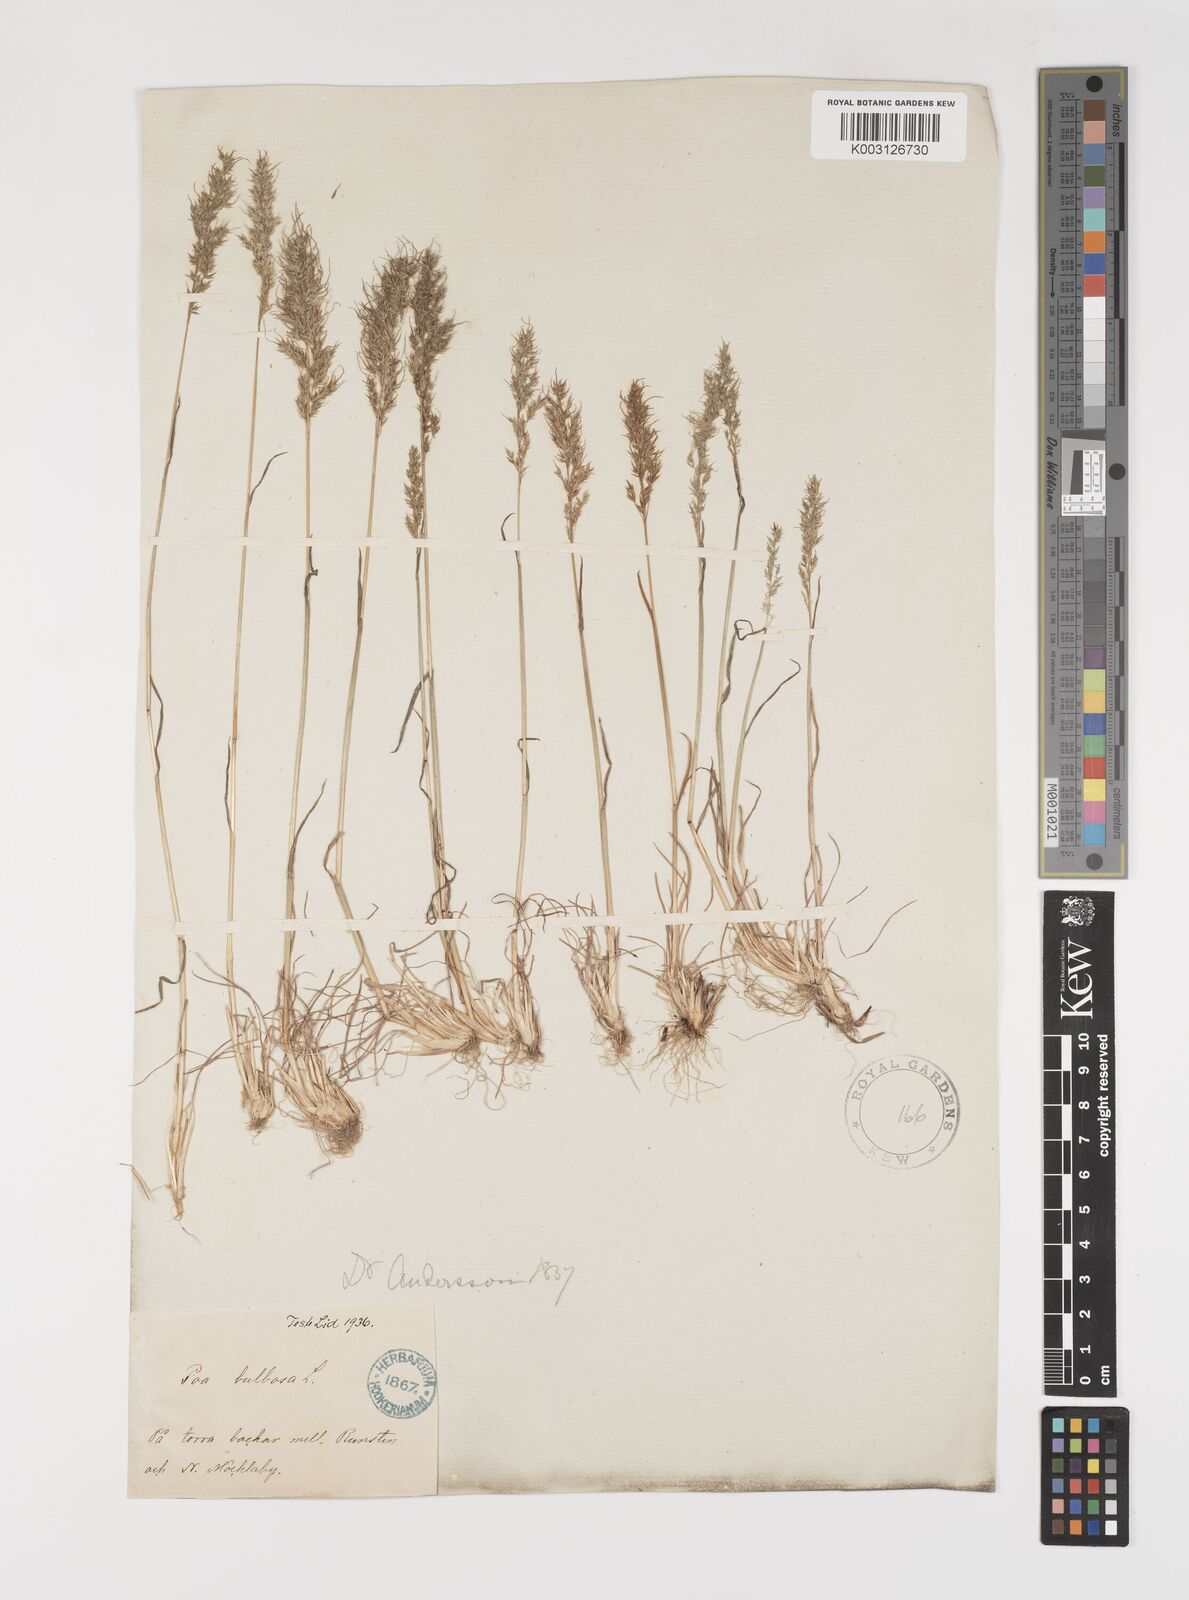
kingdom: Plantae
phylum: Tracheophyta
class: Liliopsida
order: Poales
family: Poaceae
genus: Poa
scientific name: Poa bulbosa
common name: Bulbous bluegrass
